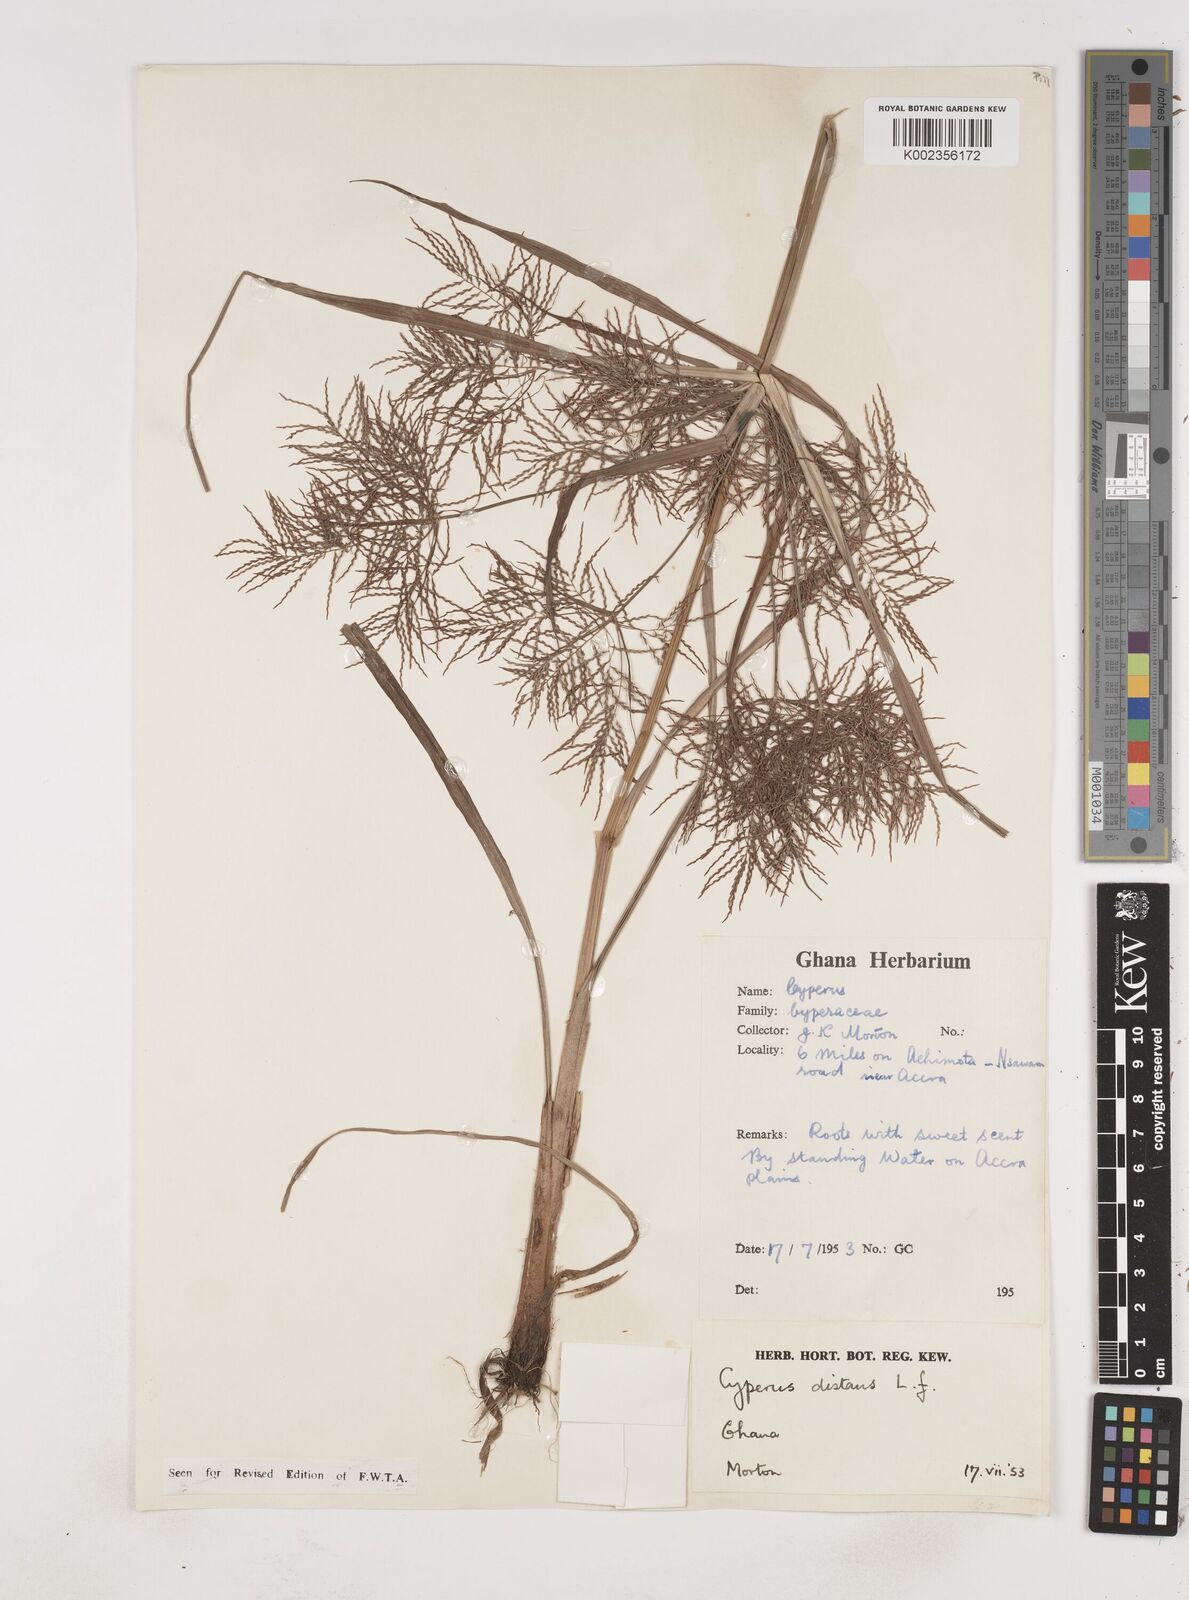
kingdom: Plantae
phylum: Tracheophyta
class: Liliopsida
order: Poales
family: Cyperaceae
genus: Cyperus
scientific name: Cyperus distans
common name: Slender cyperus
